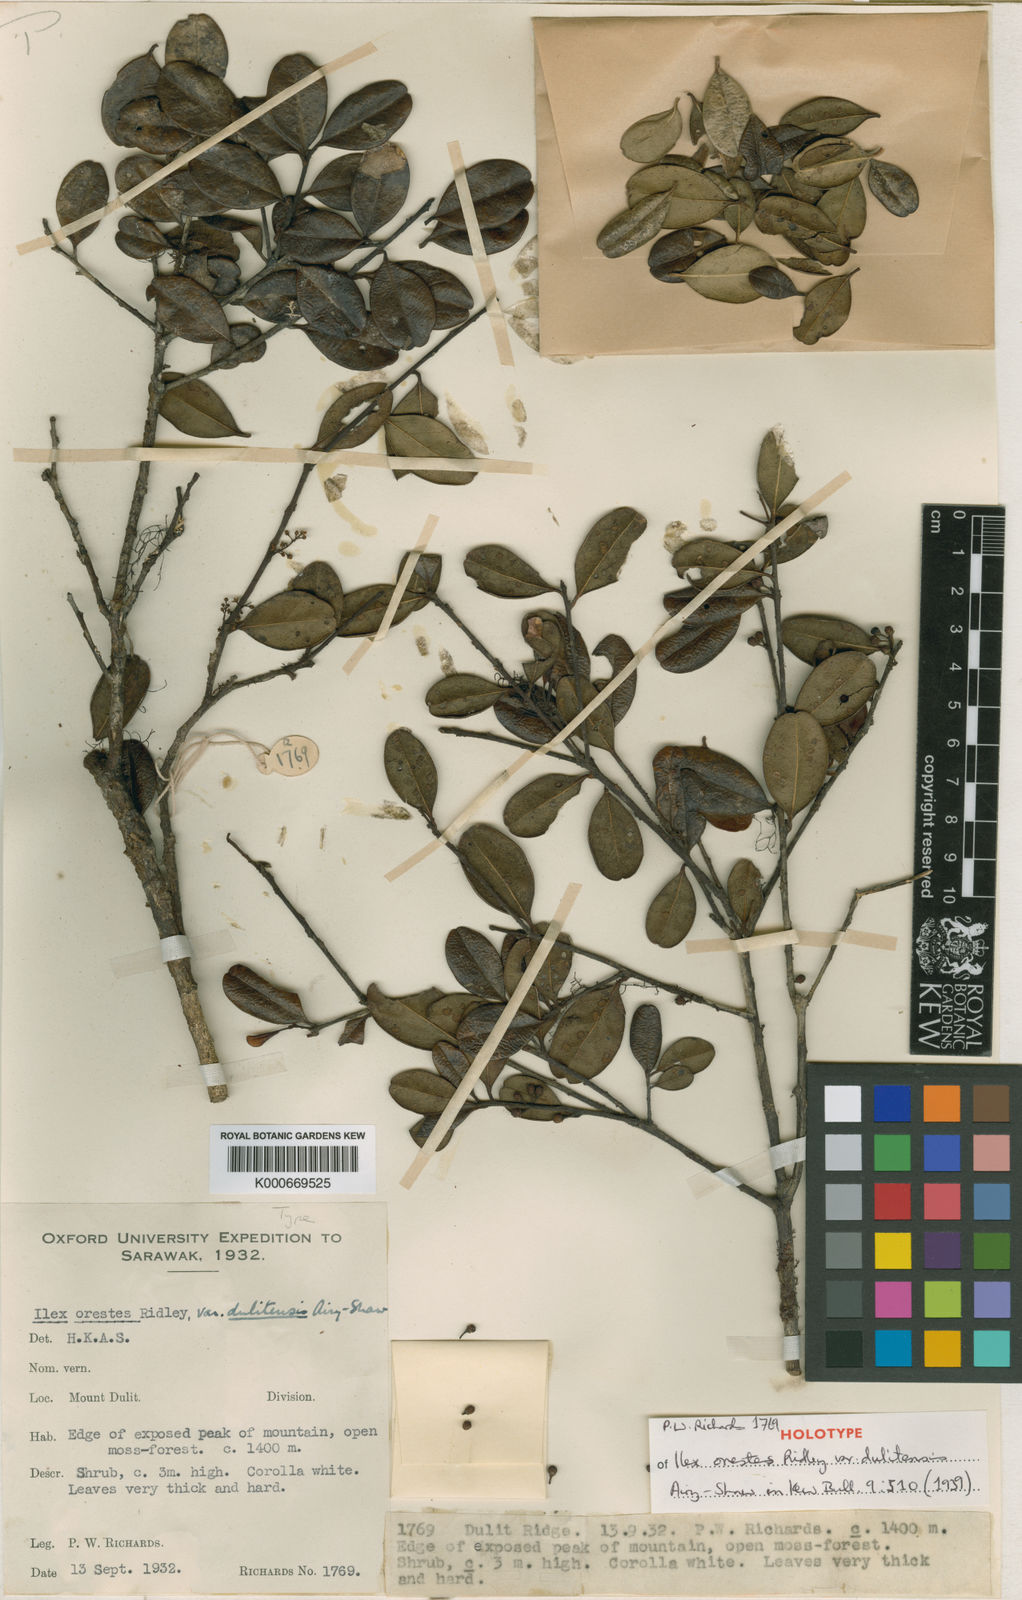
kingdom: Plantae
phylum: Tracheophyta
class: Magnoliopsida
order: Aquifoliales
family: Aquifoliaceae
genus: Ilex
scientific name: Ilex havilandii
